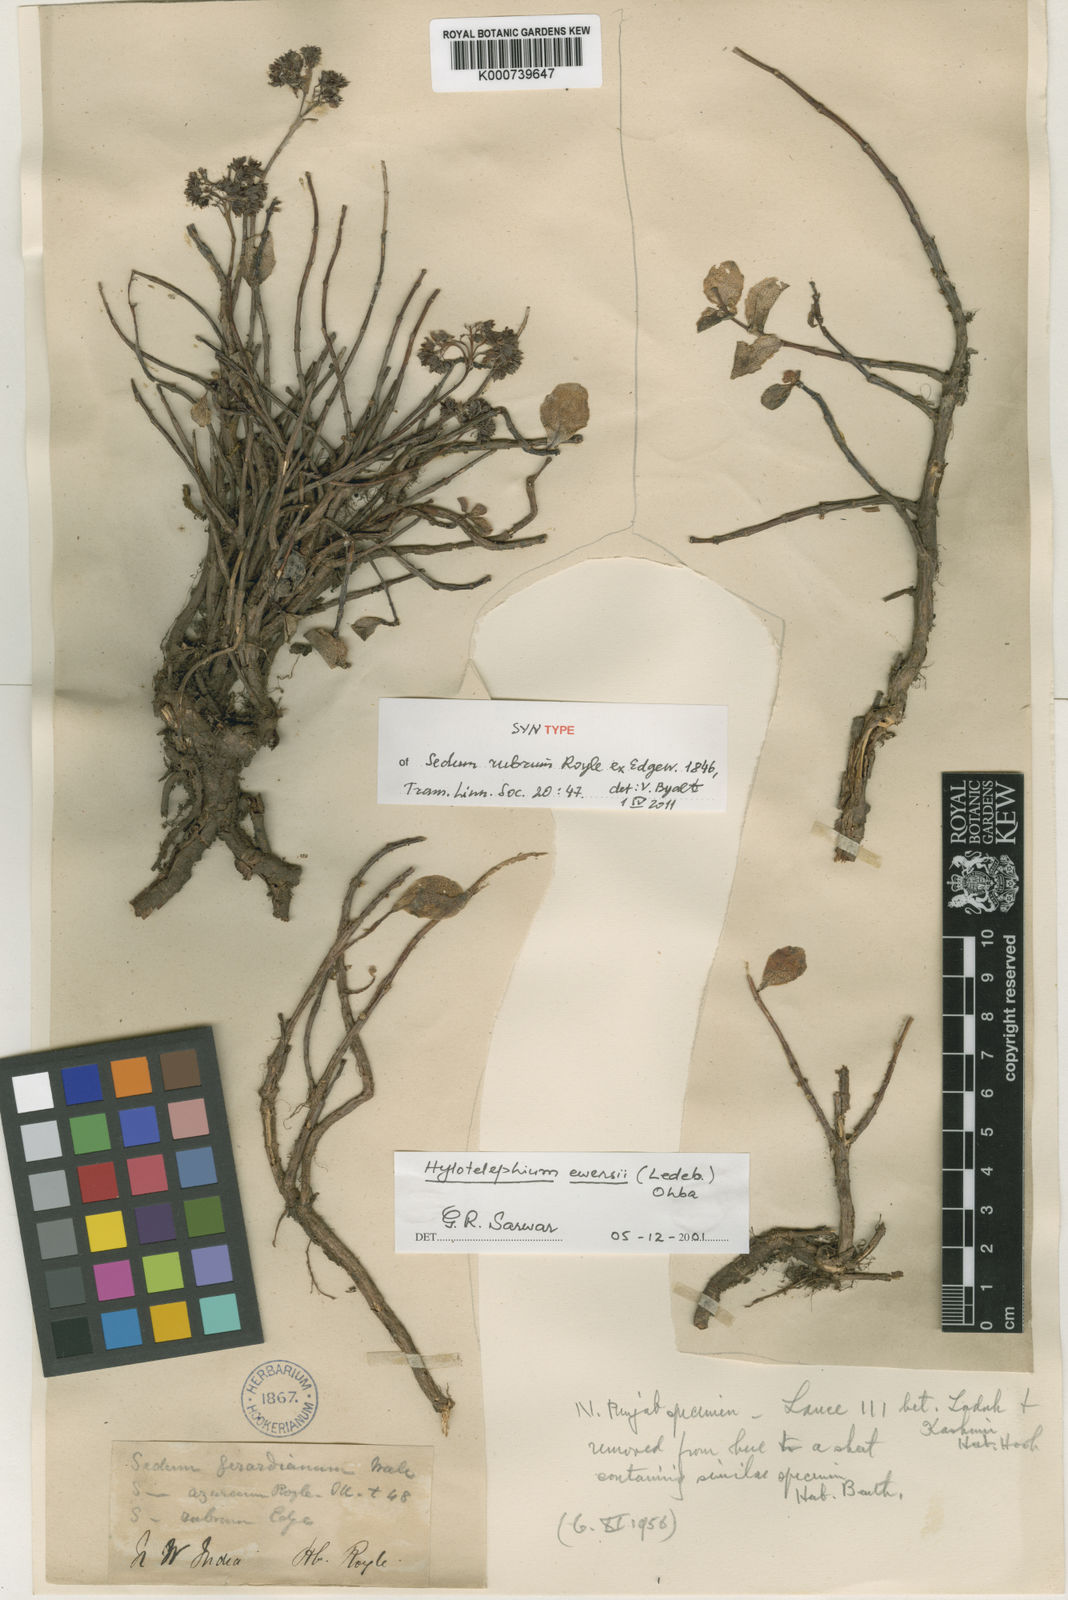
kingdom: Plantae
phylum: Tracheophyta
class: Magnoliopsida
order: Saxifragales
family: Crassulaceae
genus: Hylotelephium
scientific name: Hylotelephium ewersii
